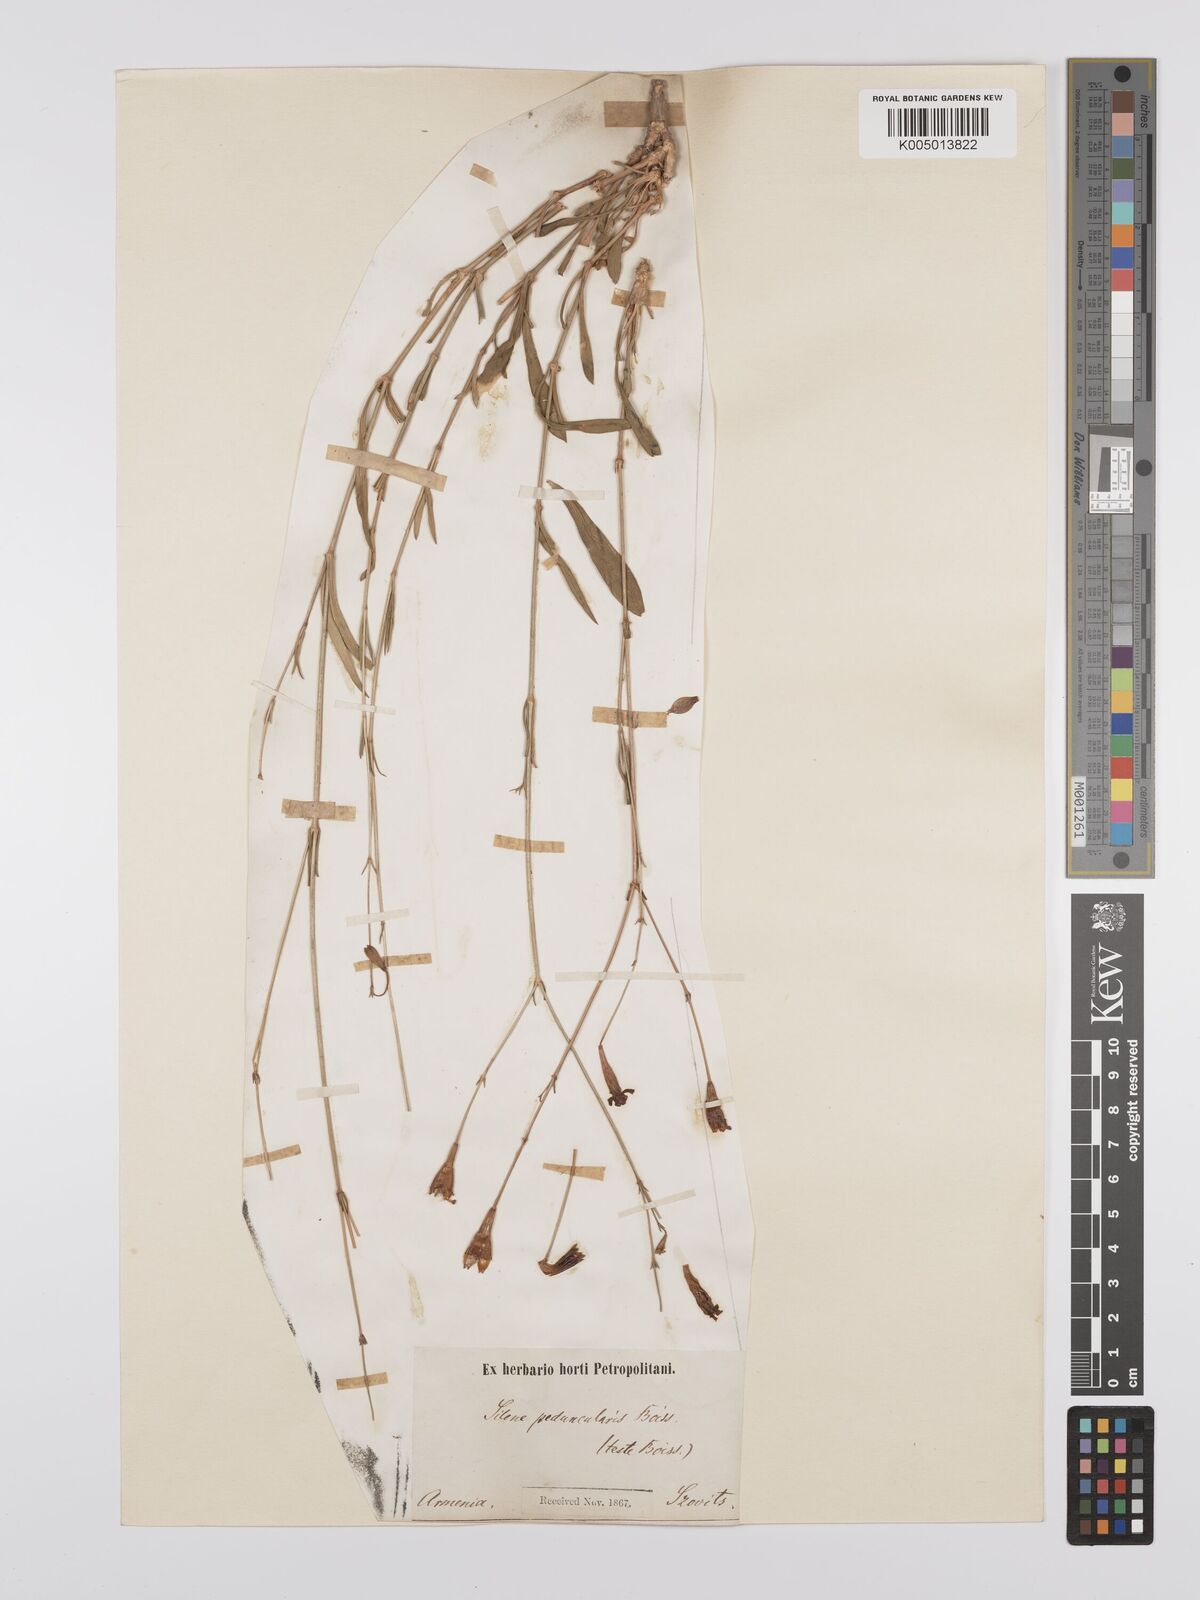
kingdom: Plantae
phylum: Tracheophyta
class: Magnoliopsida
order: Caryophyllales
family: Caryophyllaceae
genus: Silene
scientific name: Silene peduncularis
